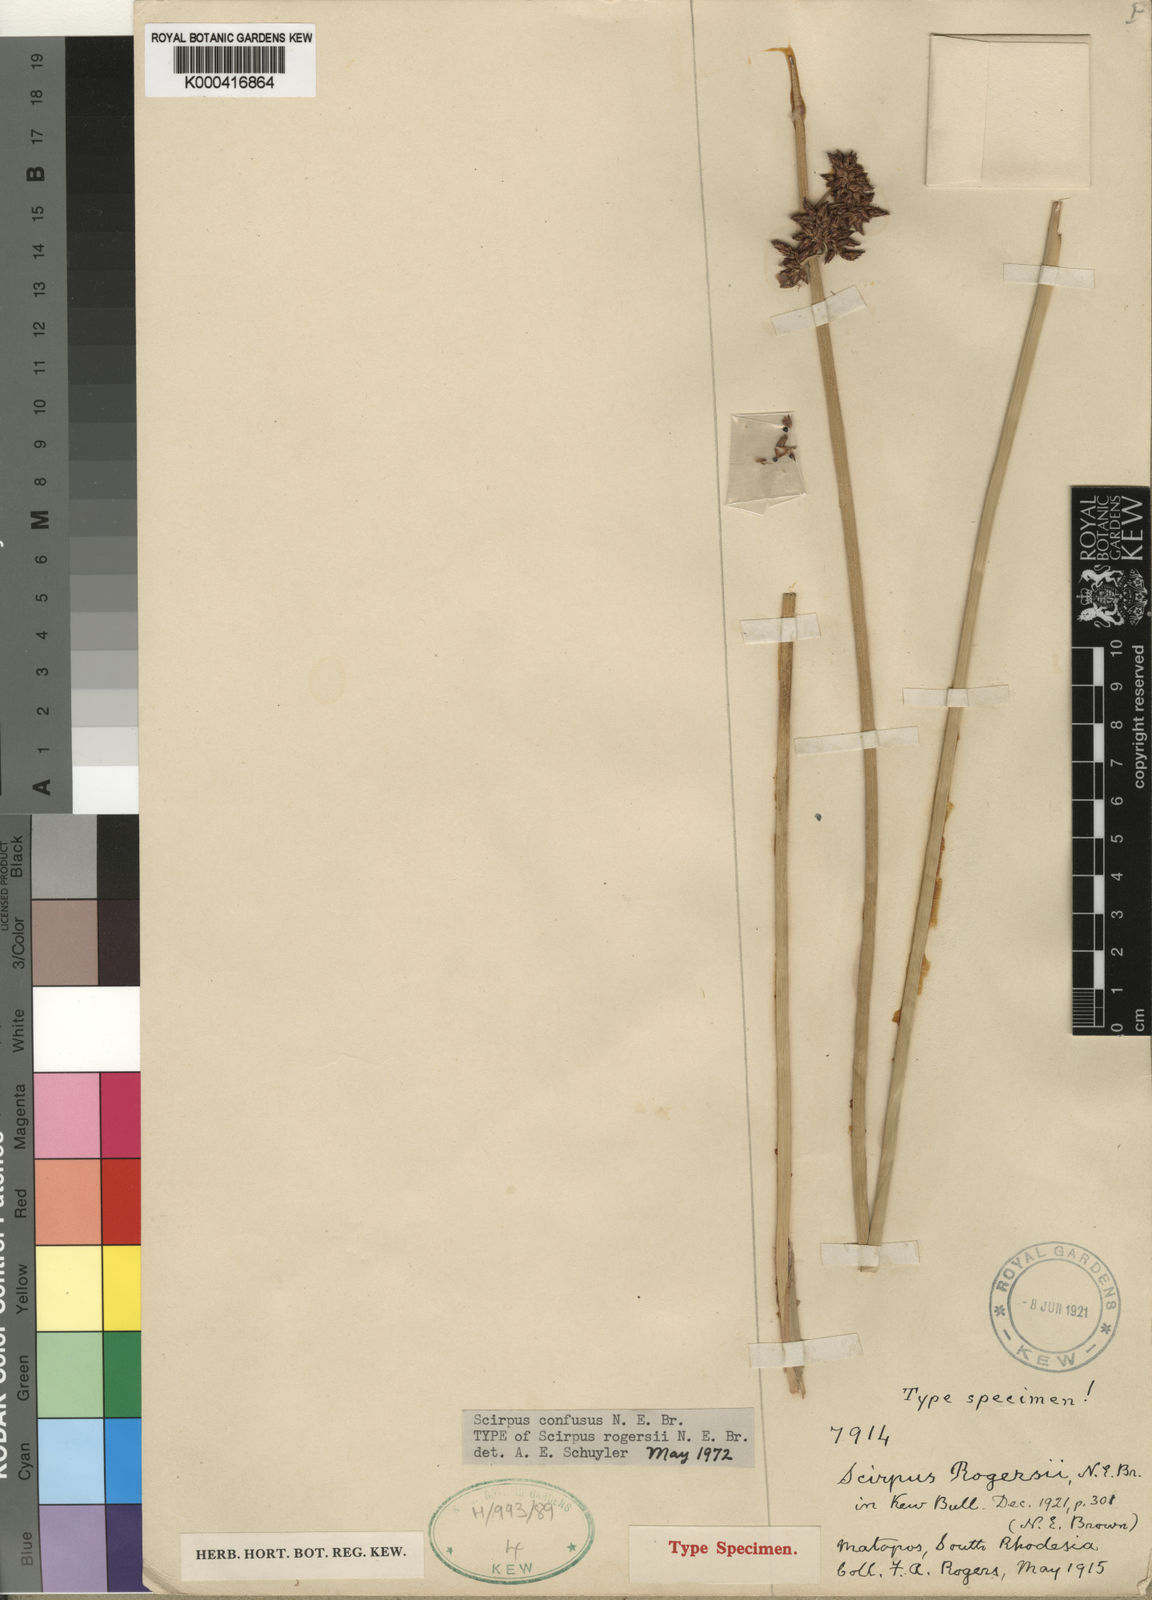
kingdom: Plantae
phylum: Tracheophyta
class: Liliopsida
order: Poales
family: Cyperaceae
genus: Schoenoplectiella
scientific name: Schoenoplectiella rogersii
